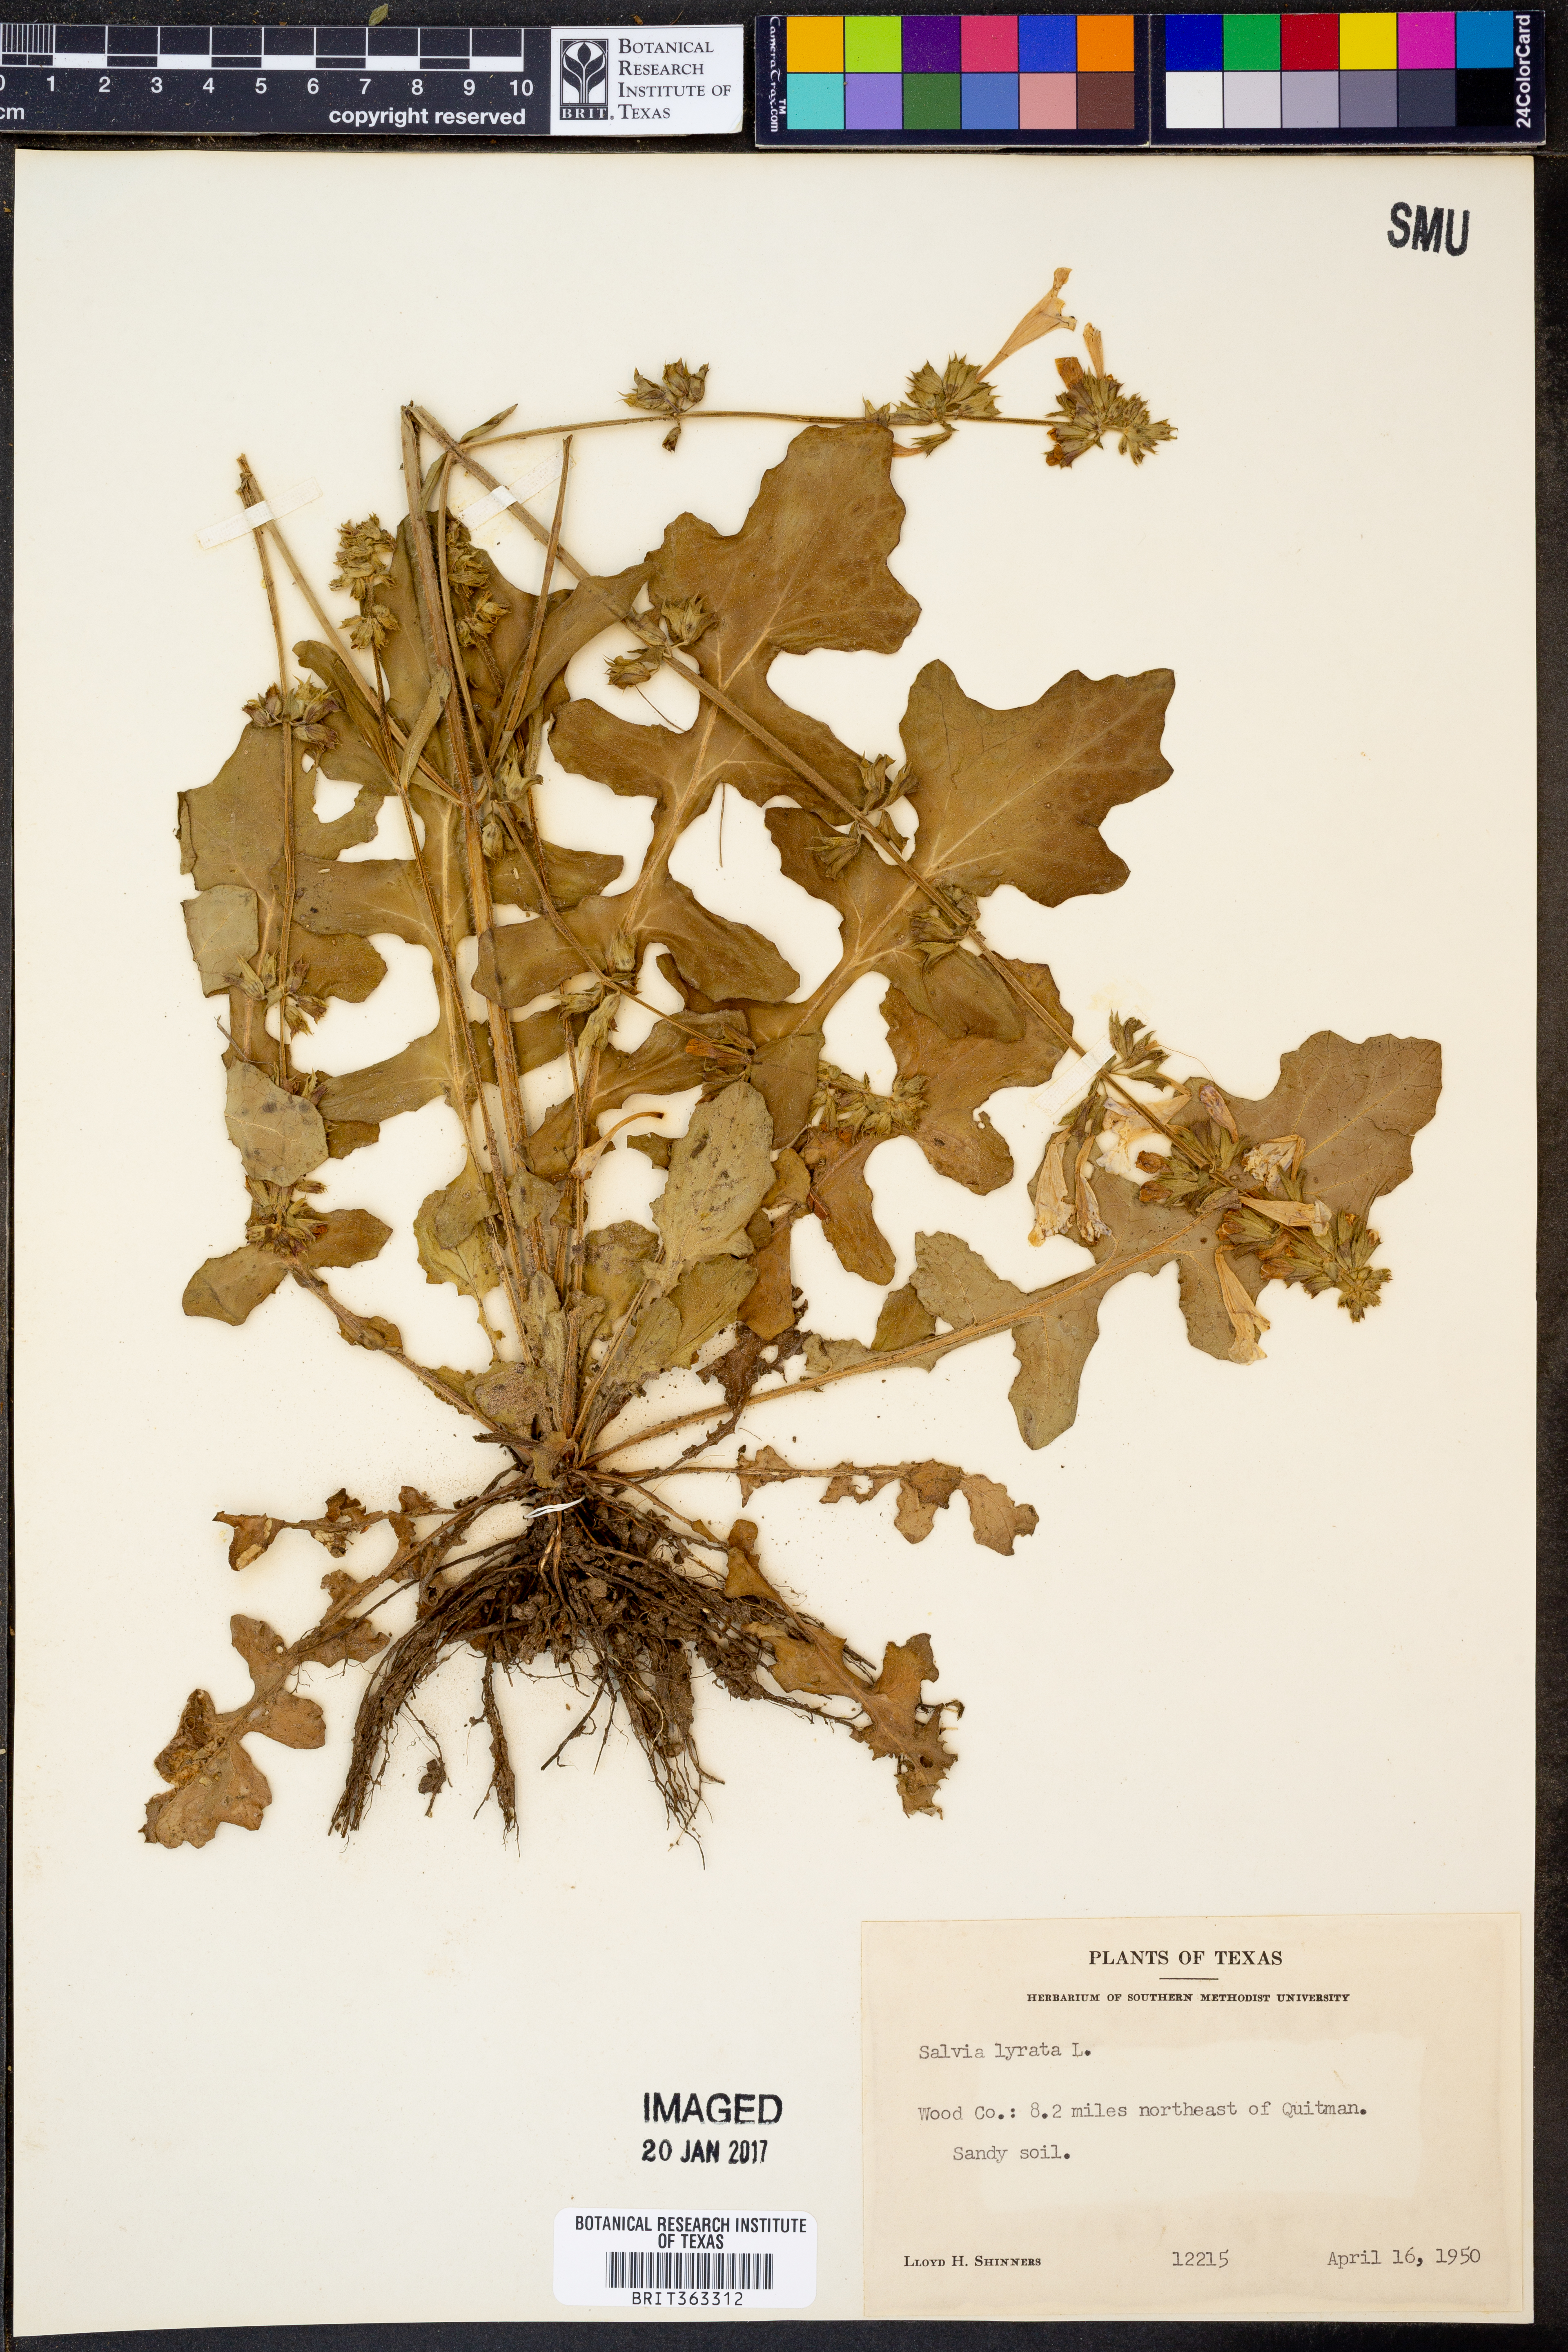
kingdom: Plantae
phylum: Tracheophyta
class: Magnoliopsida
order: Lamiales
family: Lamiaceae
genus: Salvia
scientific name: Salvia lyrata
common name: Cancerweed
